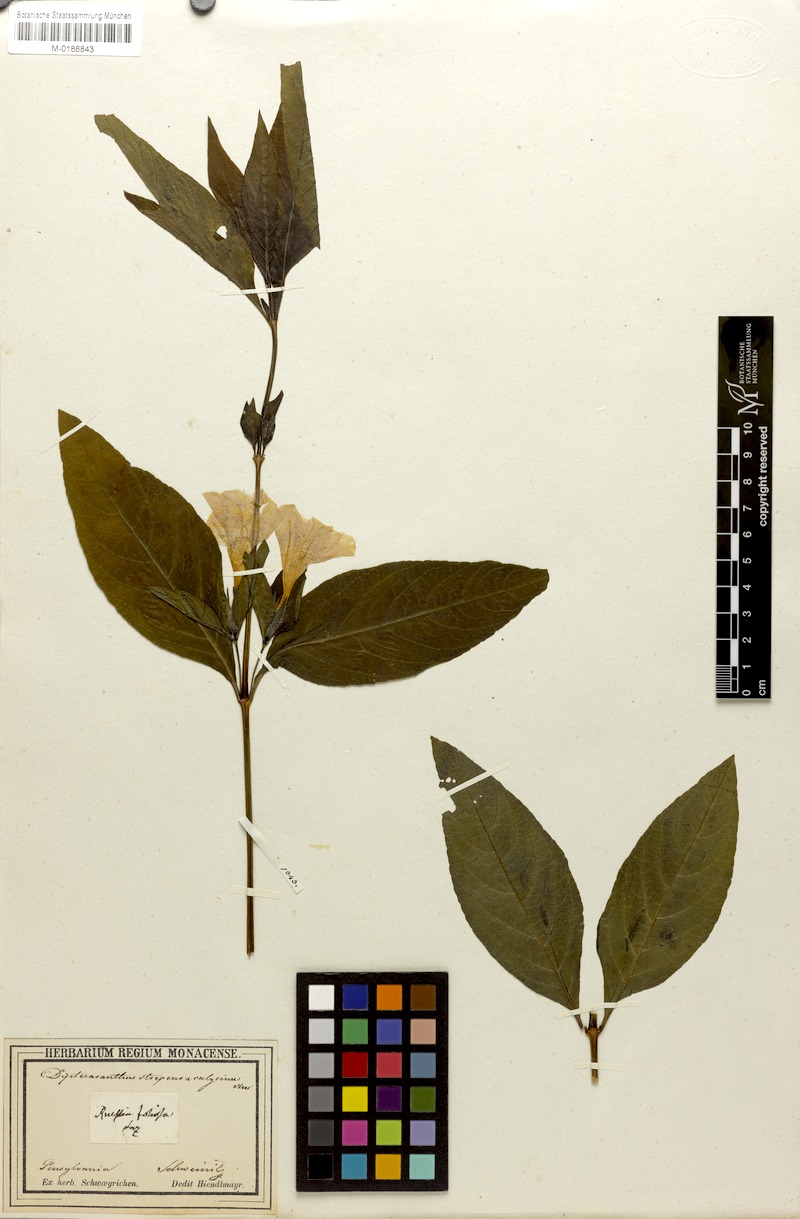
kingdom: Plantae
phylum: Tracheophyta
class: Magnoliopsida
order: Lamiales
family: Acanthaceae
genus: Ruellia
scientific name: Ruellia strepens
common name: Limestone wild petunia
